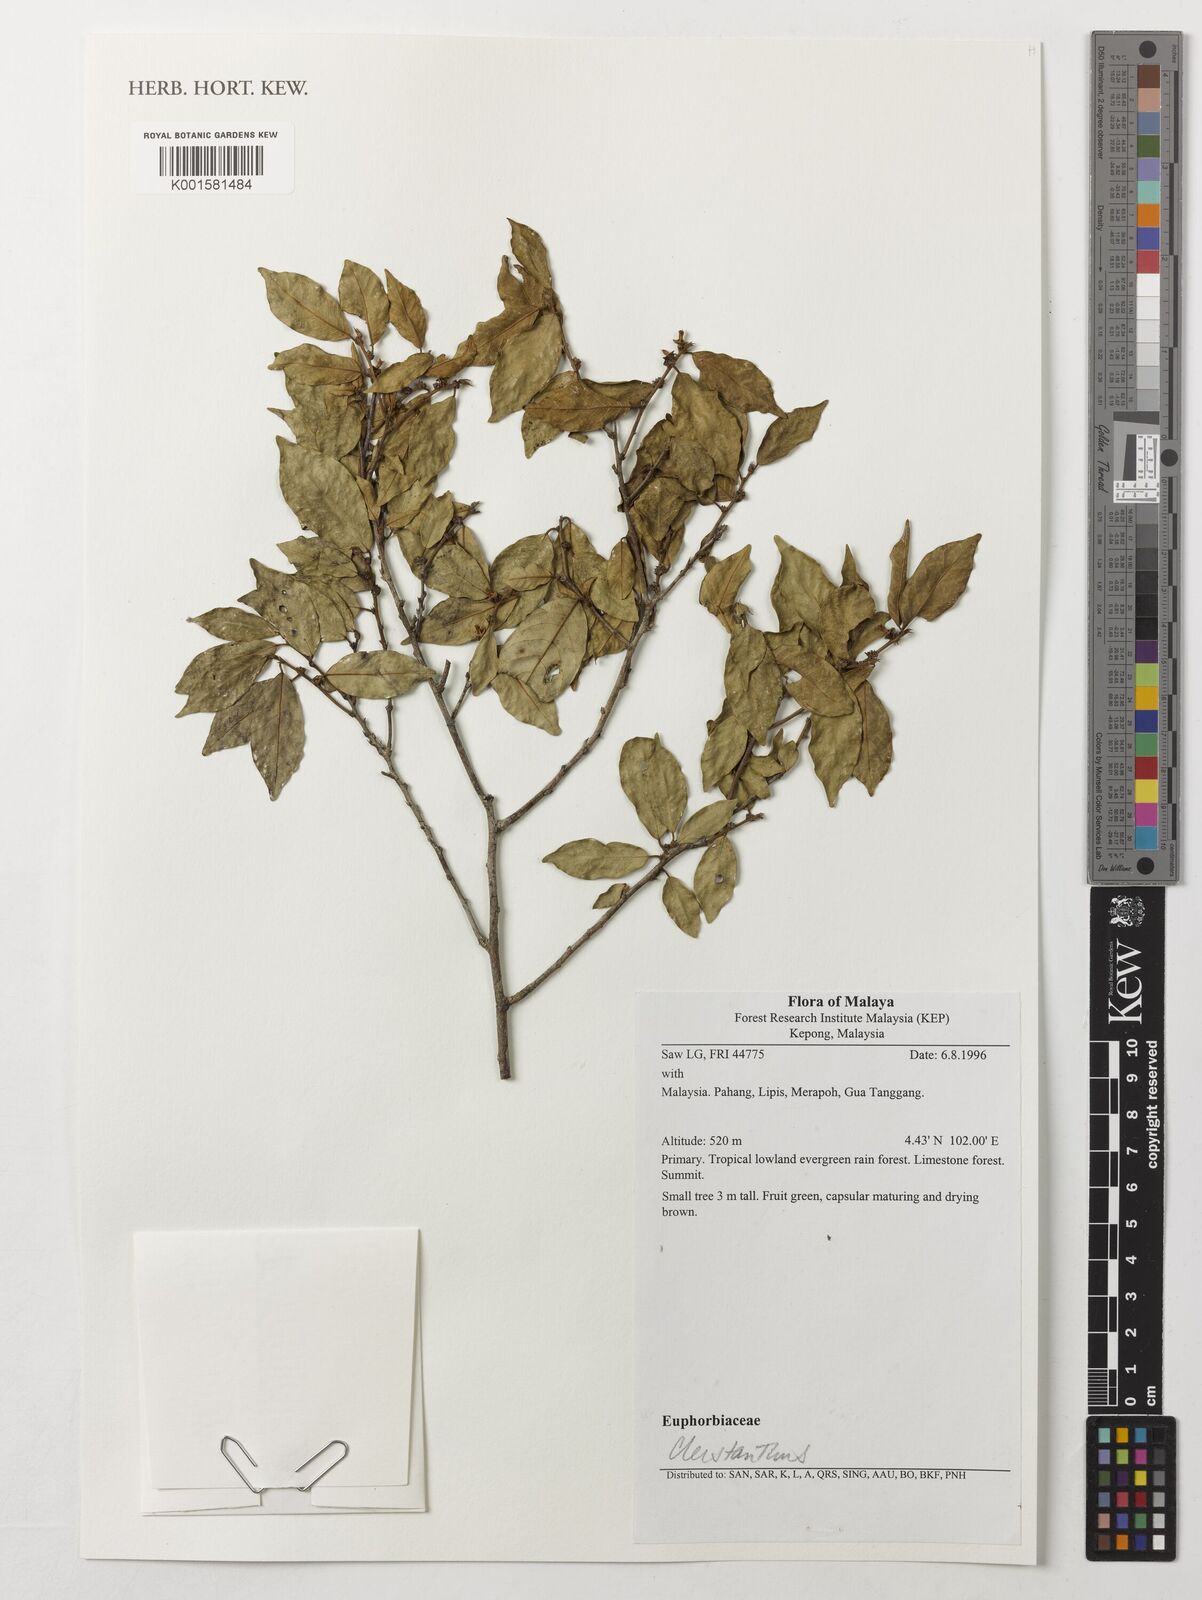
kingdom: Plantae
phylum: Tracheophyta
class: Magnoliopsida
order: Malpighiales
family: Phyllanthaceae
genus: Cleistanthus
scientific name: Cleistanthus
